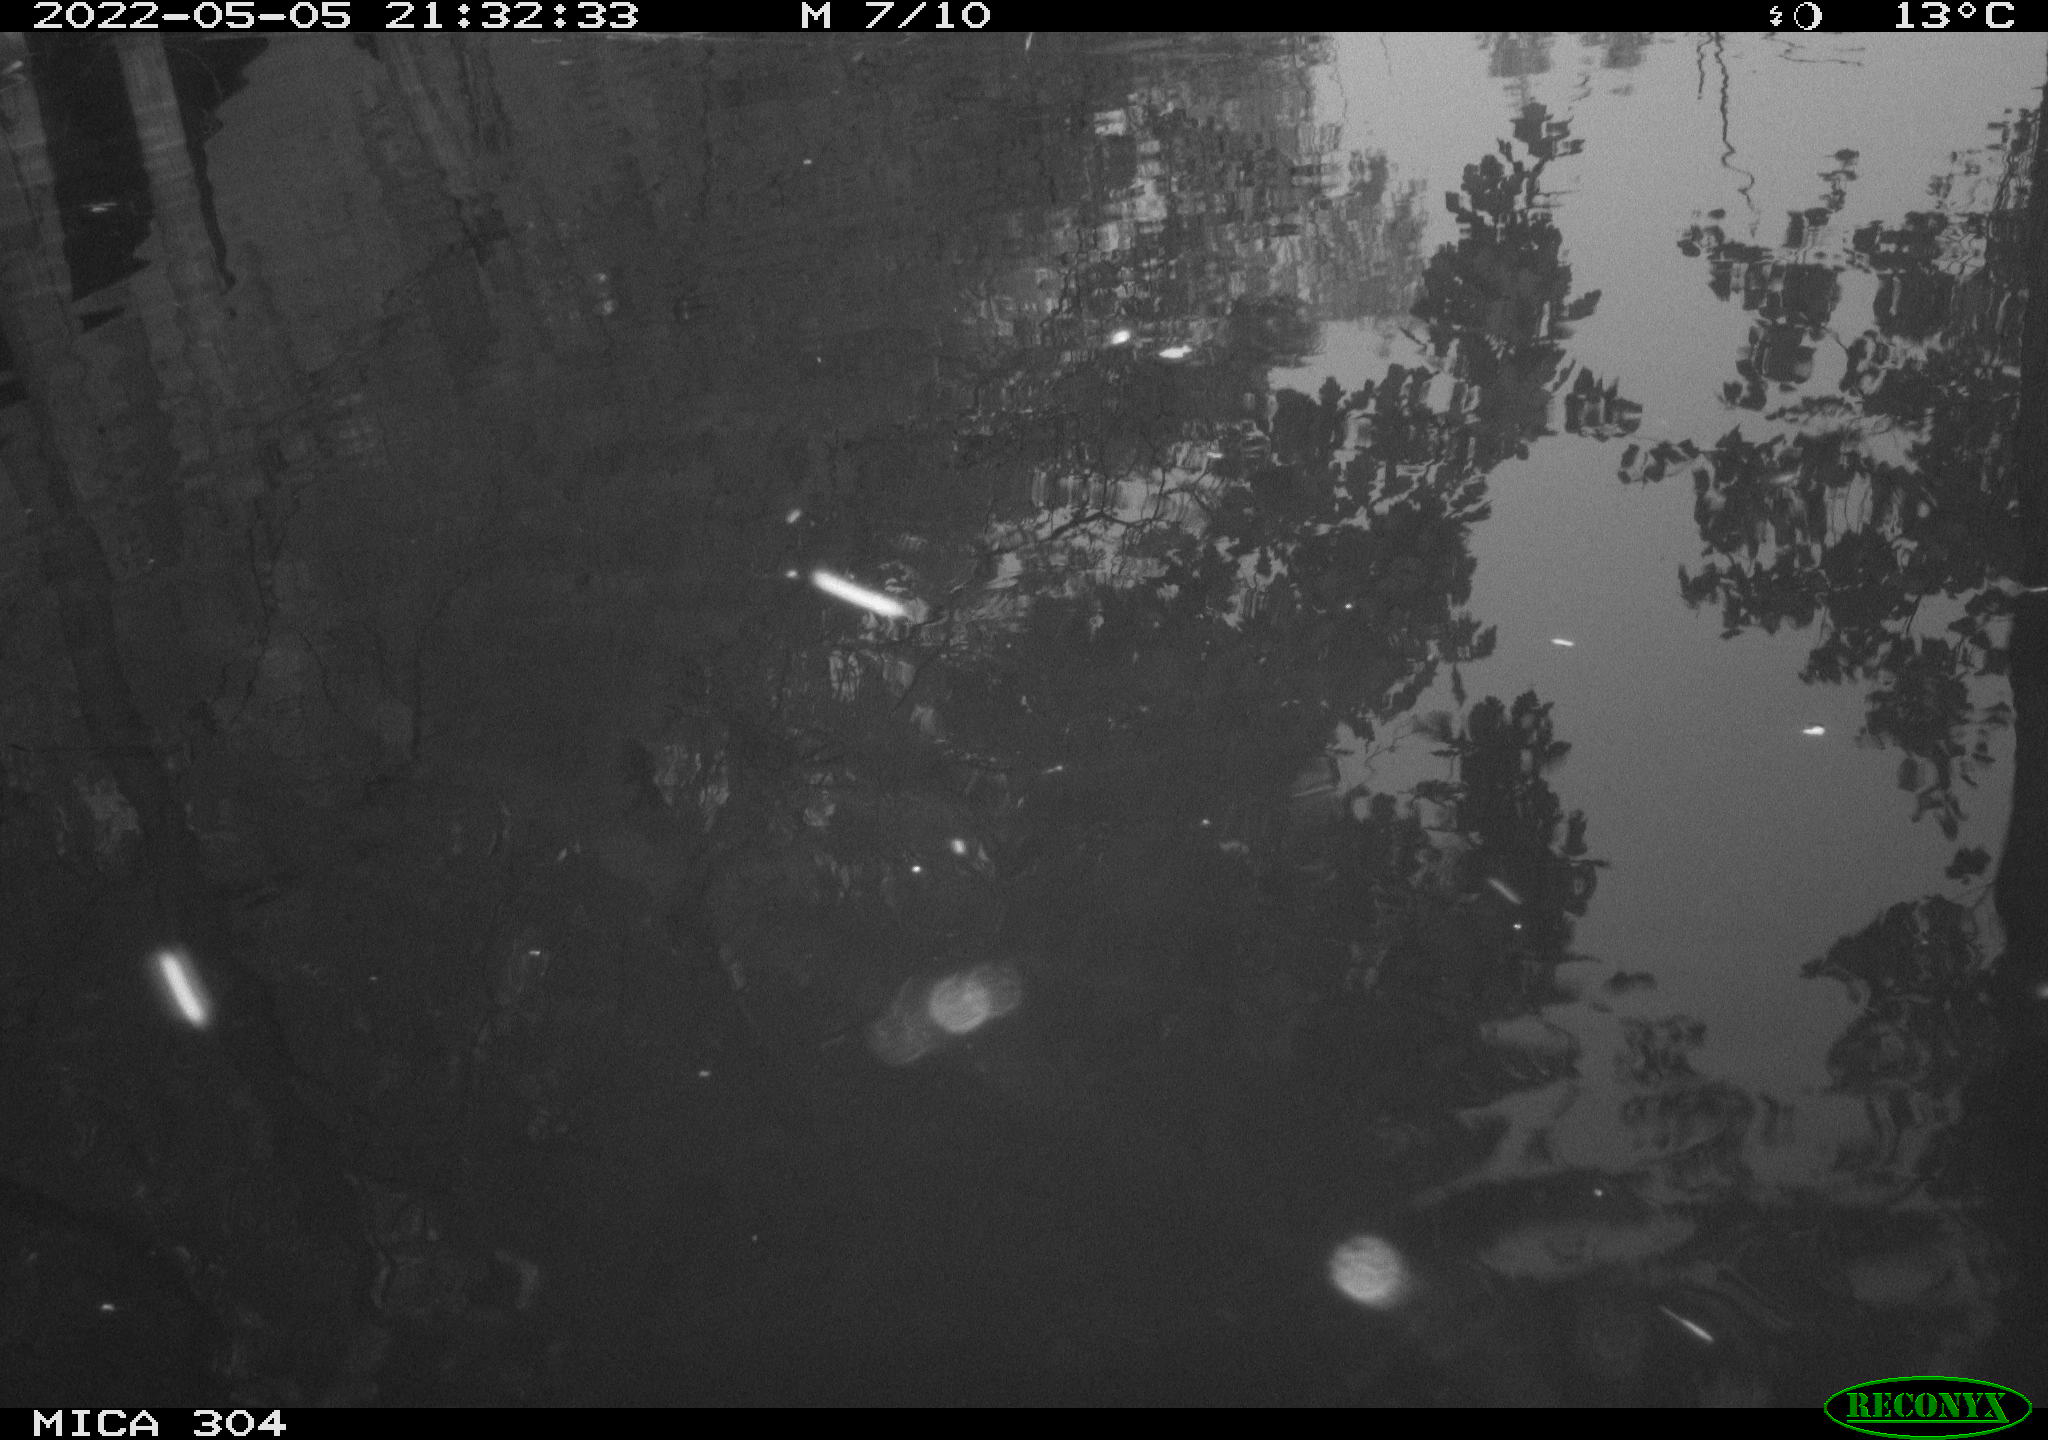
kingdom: Animalia
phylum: Chordata
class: Aves
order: Gruiformes
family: Rallidae
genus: Gallinula
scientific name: Gallinula chloropus
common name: Common moorhen
